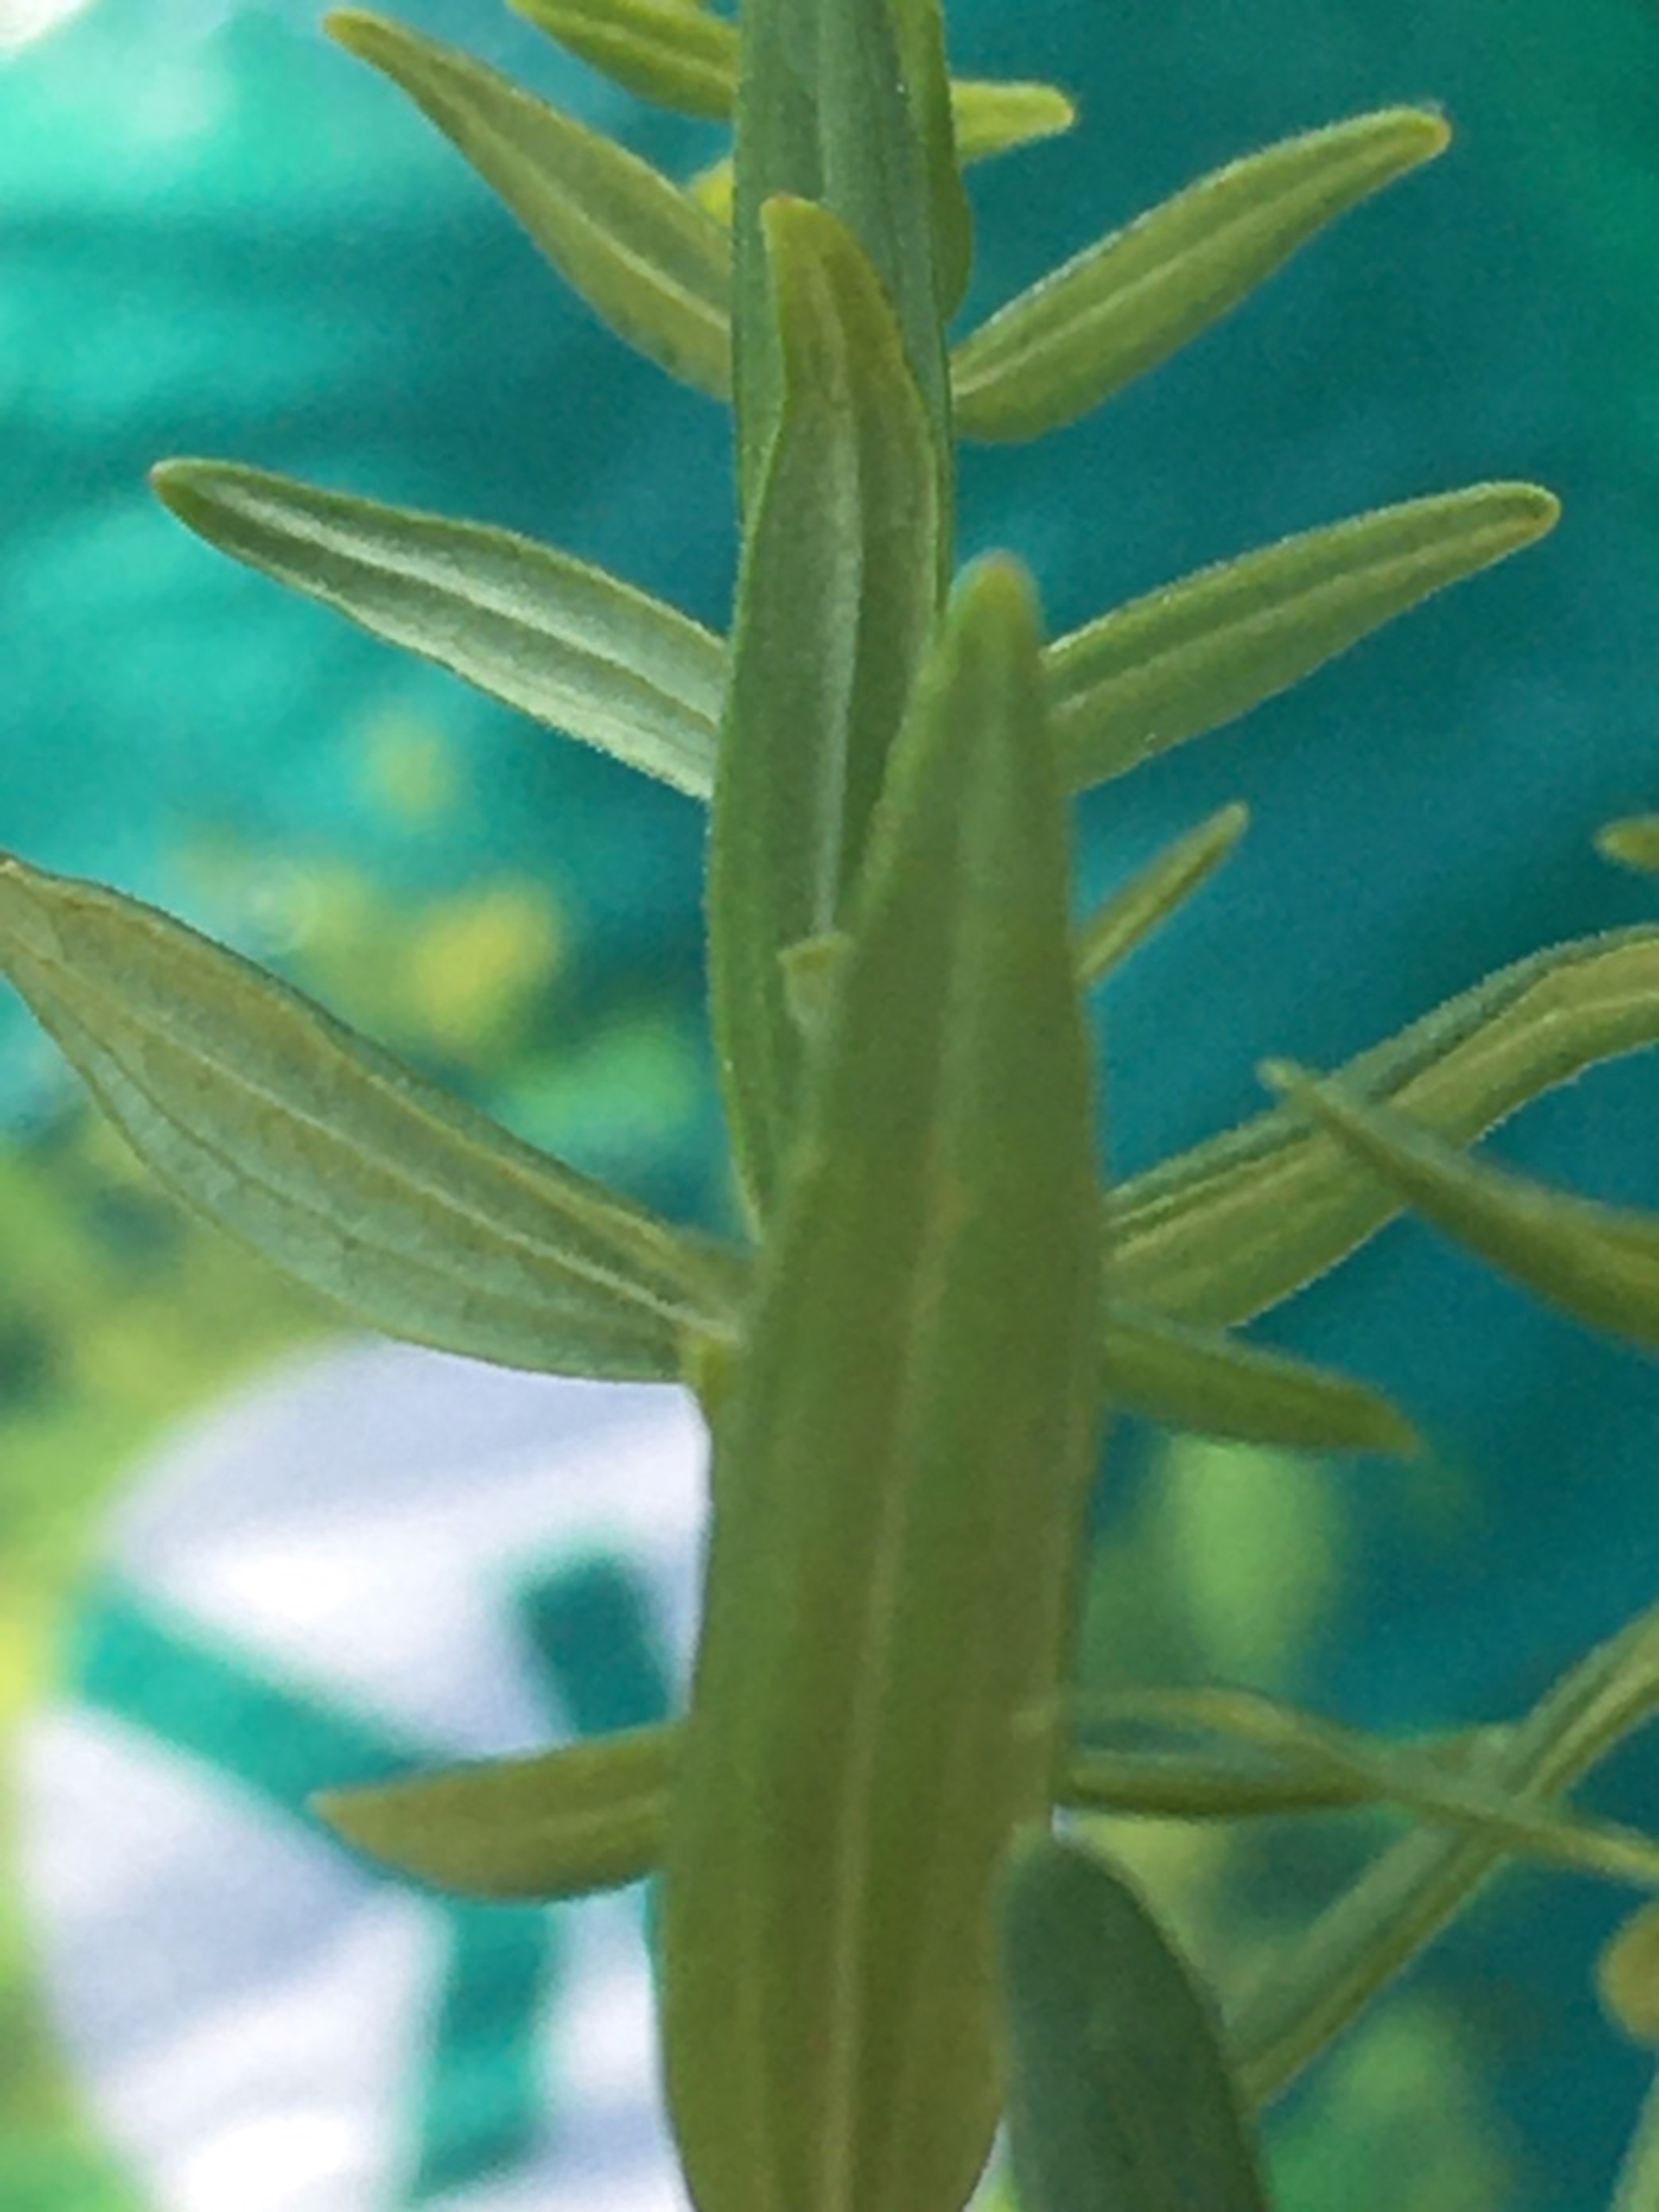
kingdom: Plantae
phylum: Tracheophyta
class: Magnoliopsida
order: Gentianales
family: Rubiaceae
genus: Galium
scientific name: Galium boreale
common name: Trenervet snerre
